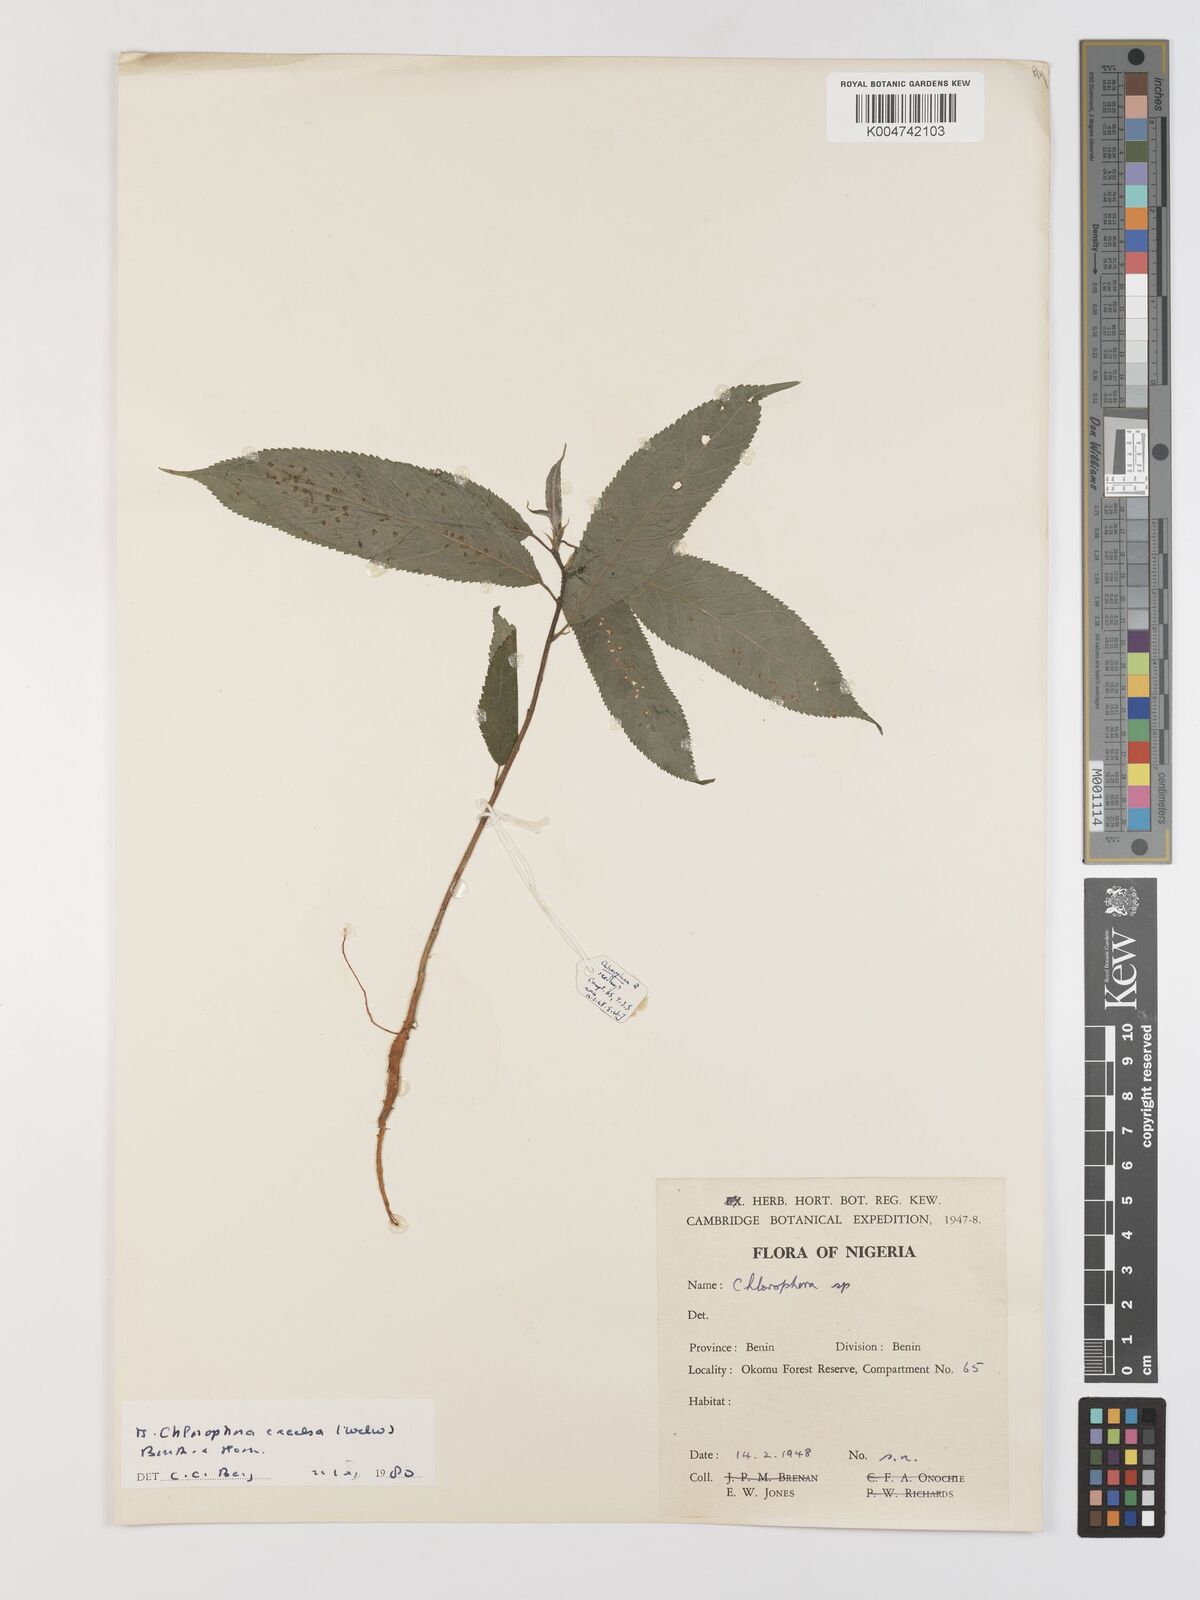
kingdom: Plantae
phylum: Tracheophyta
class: Magnoliopsida
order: Rosales
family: Moraceae
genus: Milicia
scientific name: Milicia excelsa
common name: African teak
